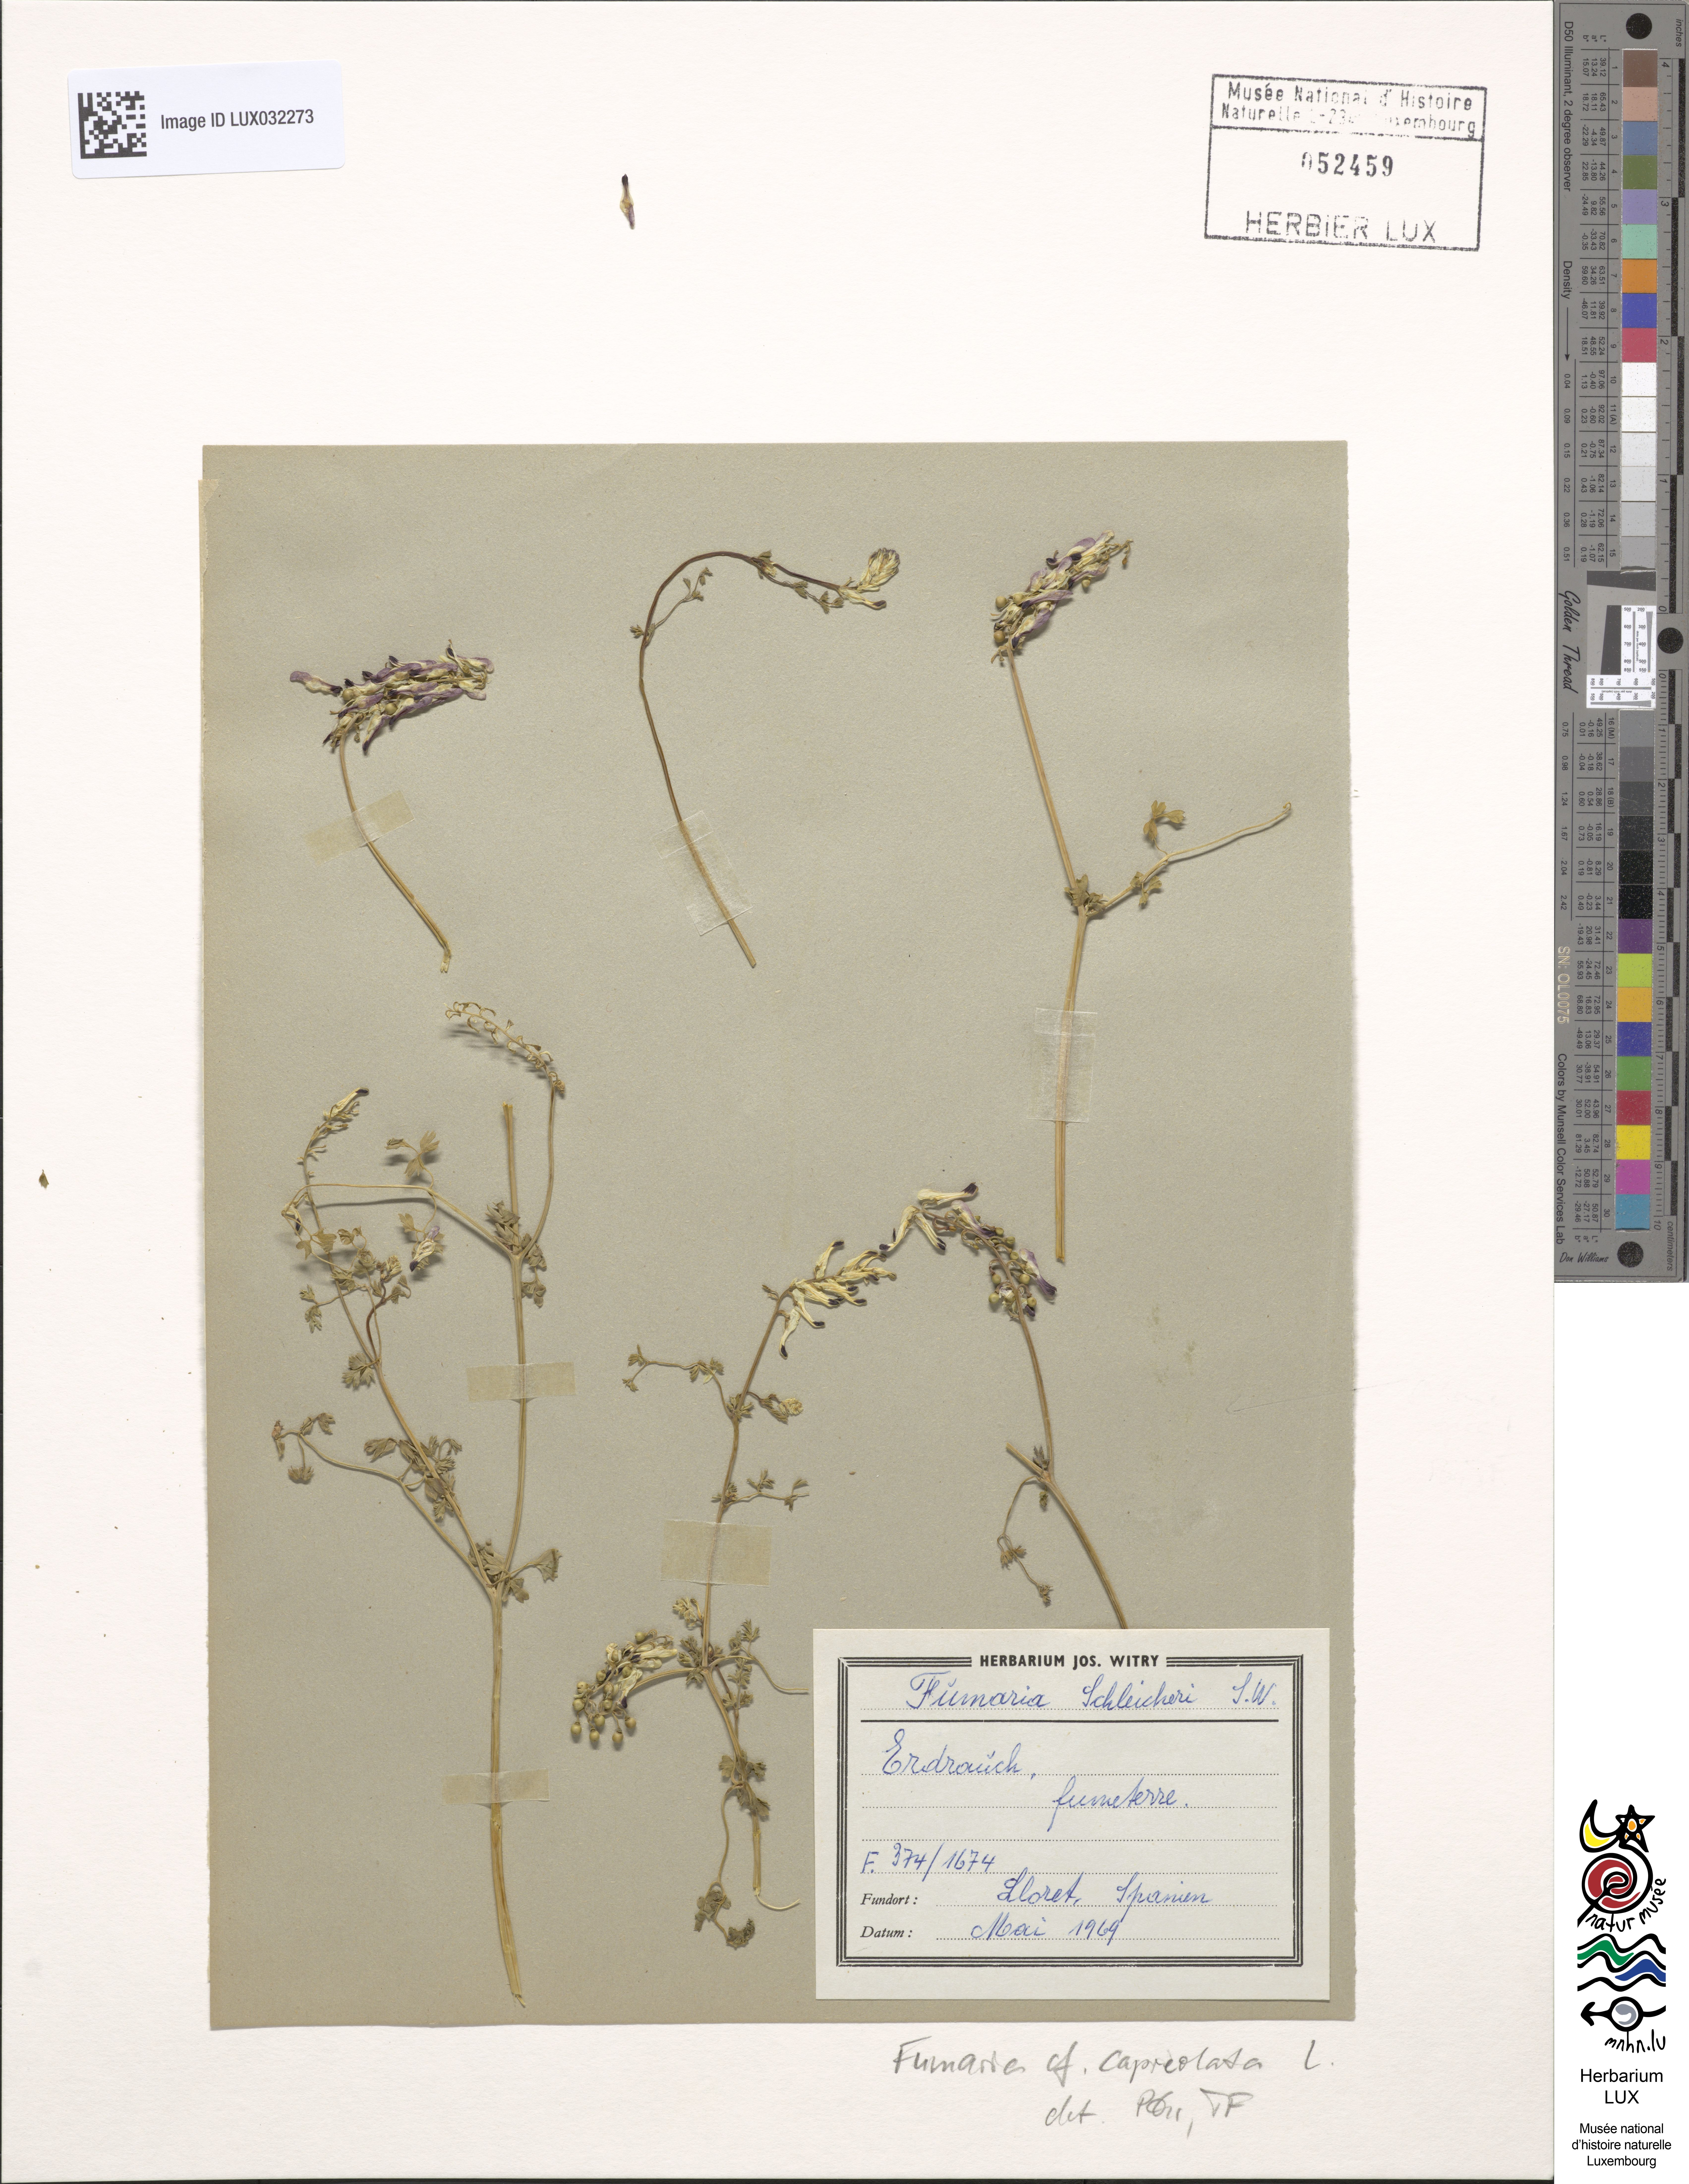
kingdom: Plantae
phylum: Tracheophyta
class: Magnoliopsida
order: Ranunculales
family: Papaveraceae
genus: Fumaria
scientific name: Fumaria capreolata
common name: White ramping-fumitory
